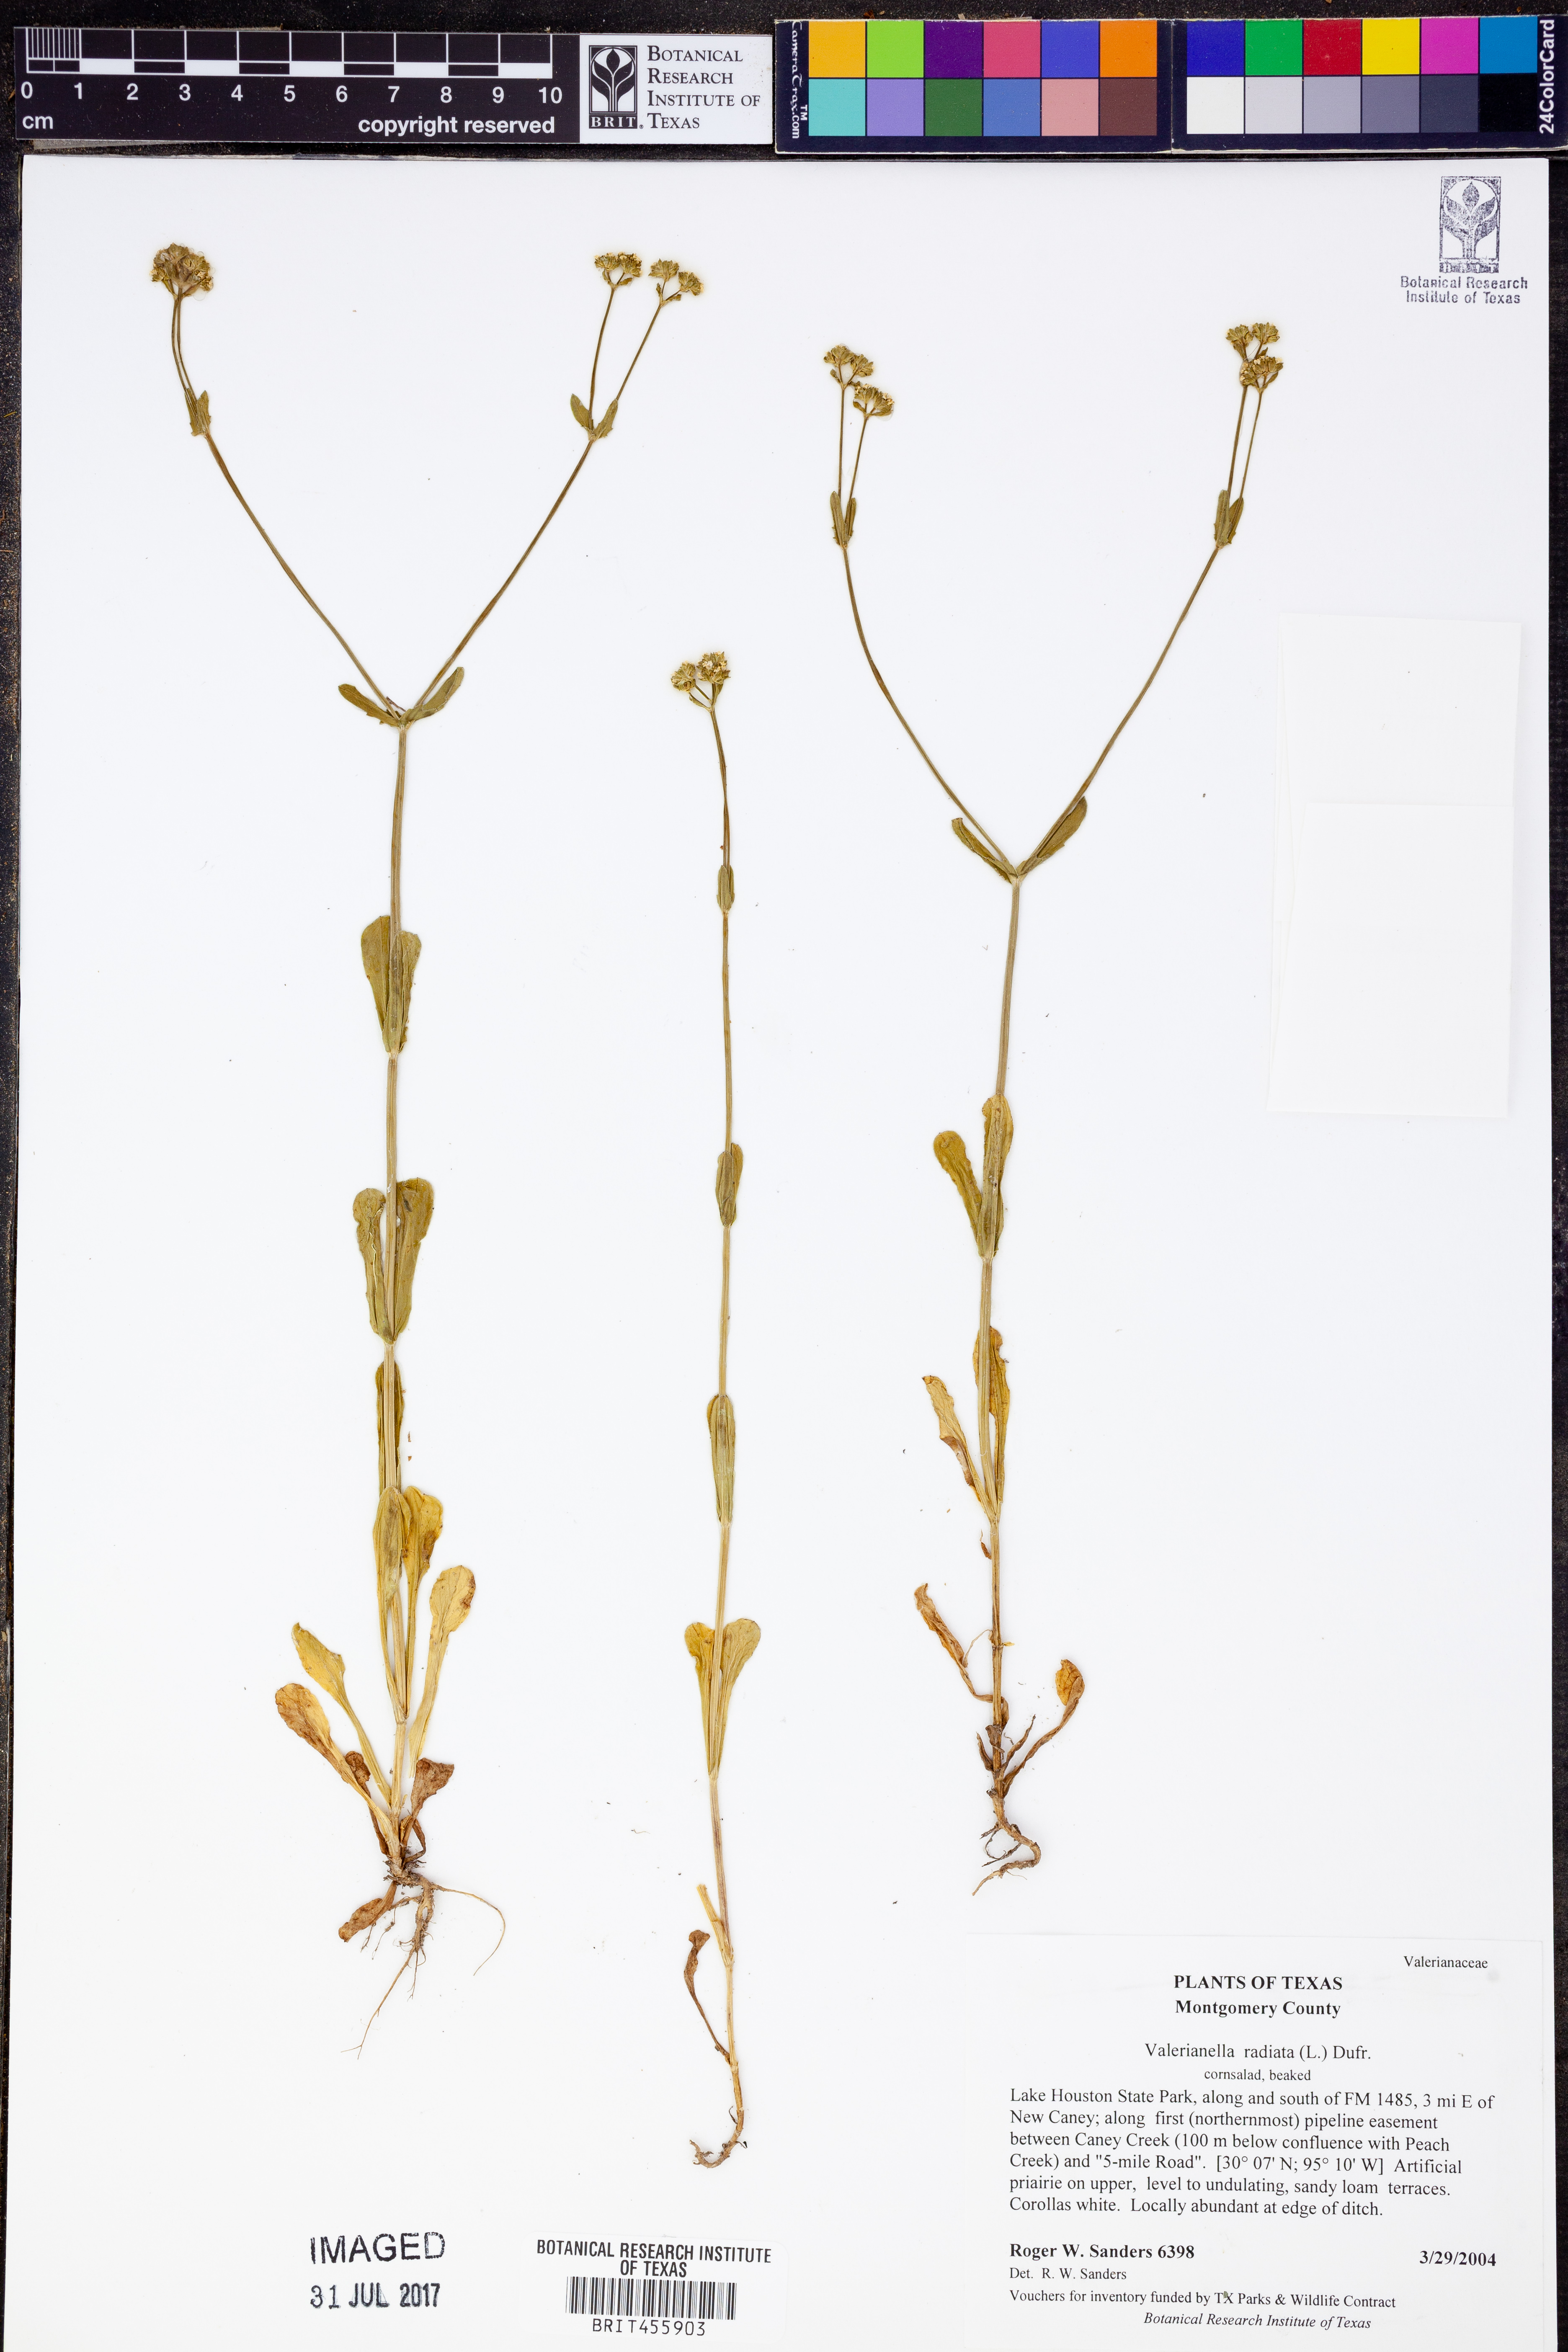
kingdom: Plantae
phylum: Tracheophyta
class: Magnoliopsida
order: Dipsacales
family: Caprifoliaceae
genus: Valerianella
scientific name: Valerianella radiata
